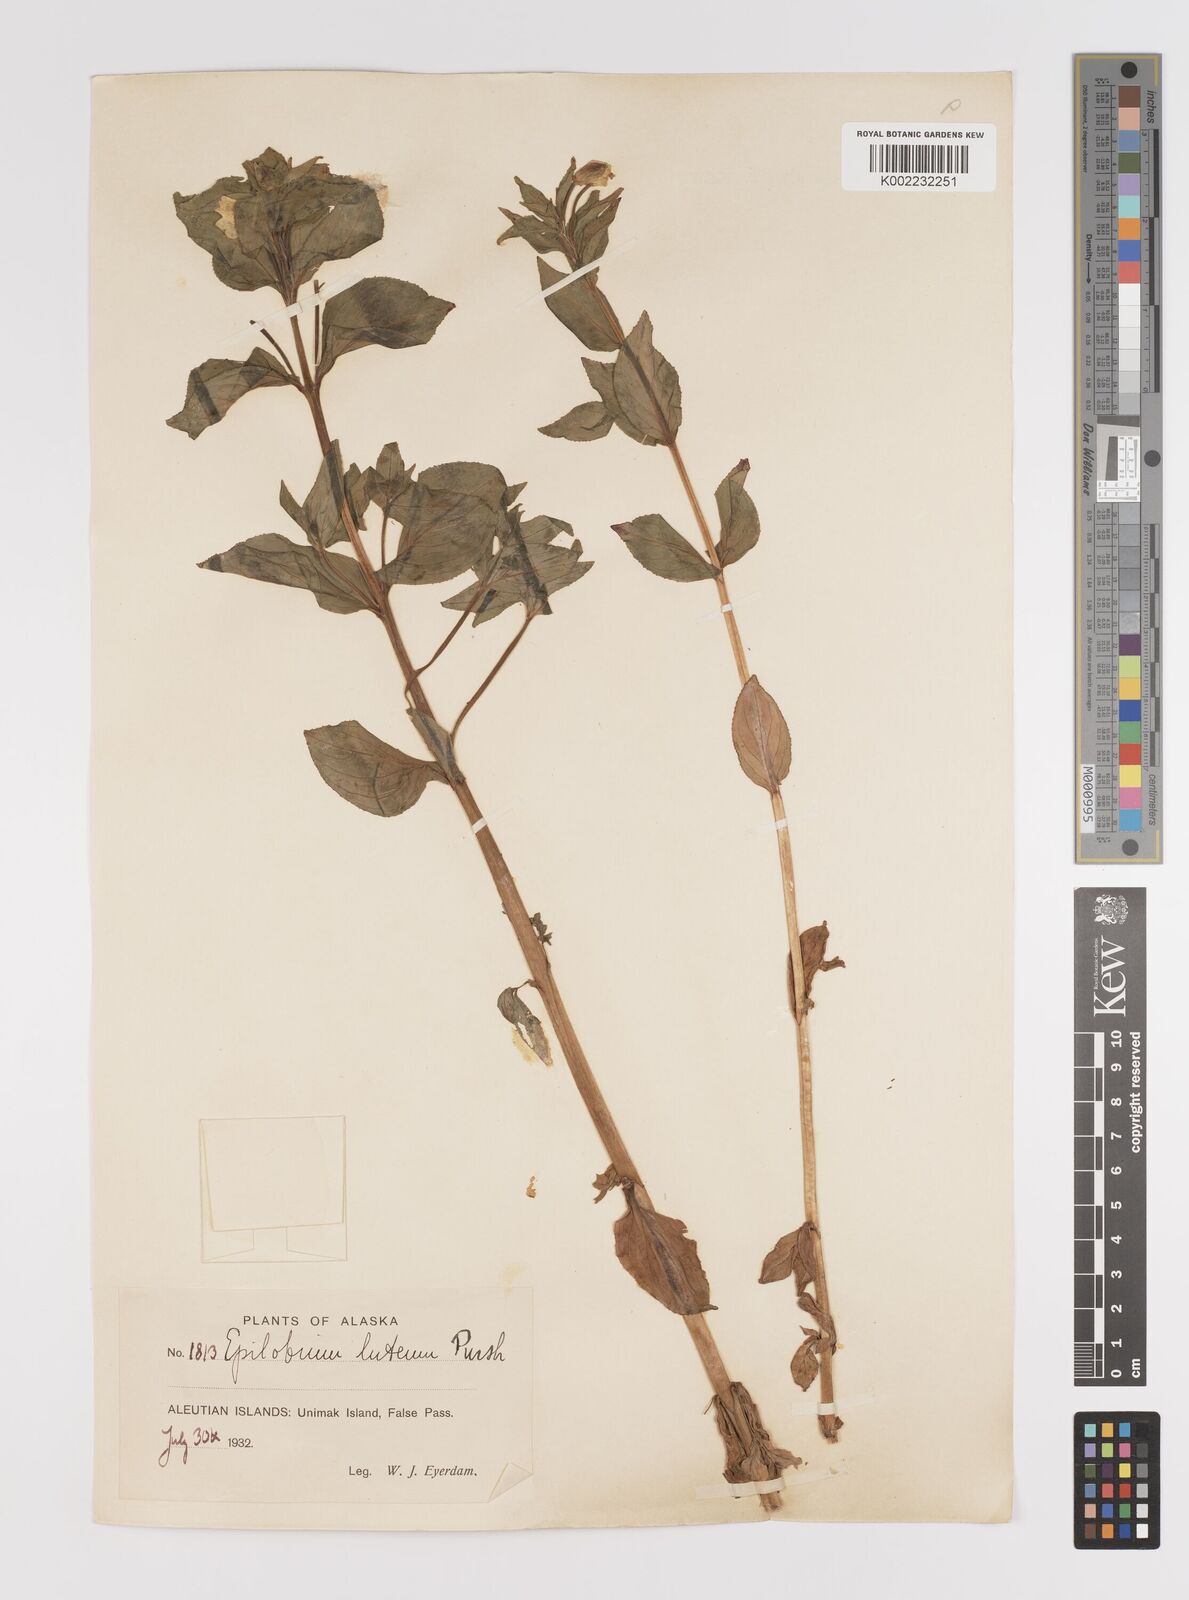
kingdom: Plantae
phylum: Tracheophyta
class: Magnoliopsida
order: Myrtales
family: Onagraceae
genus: Epilobium
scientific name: Epilobium luteum
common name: Yellow willowherb
